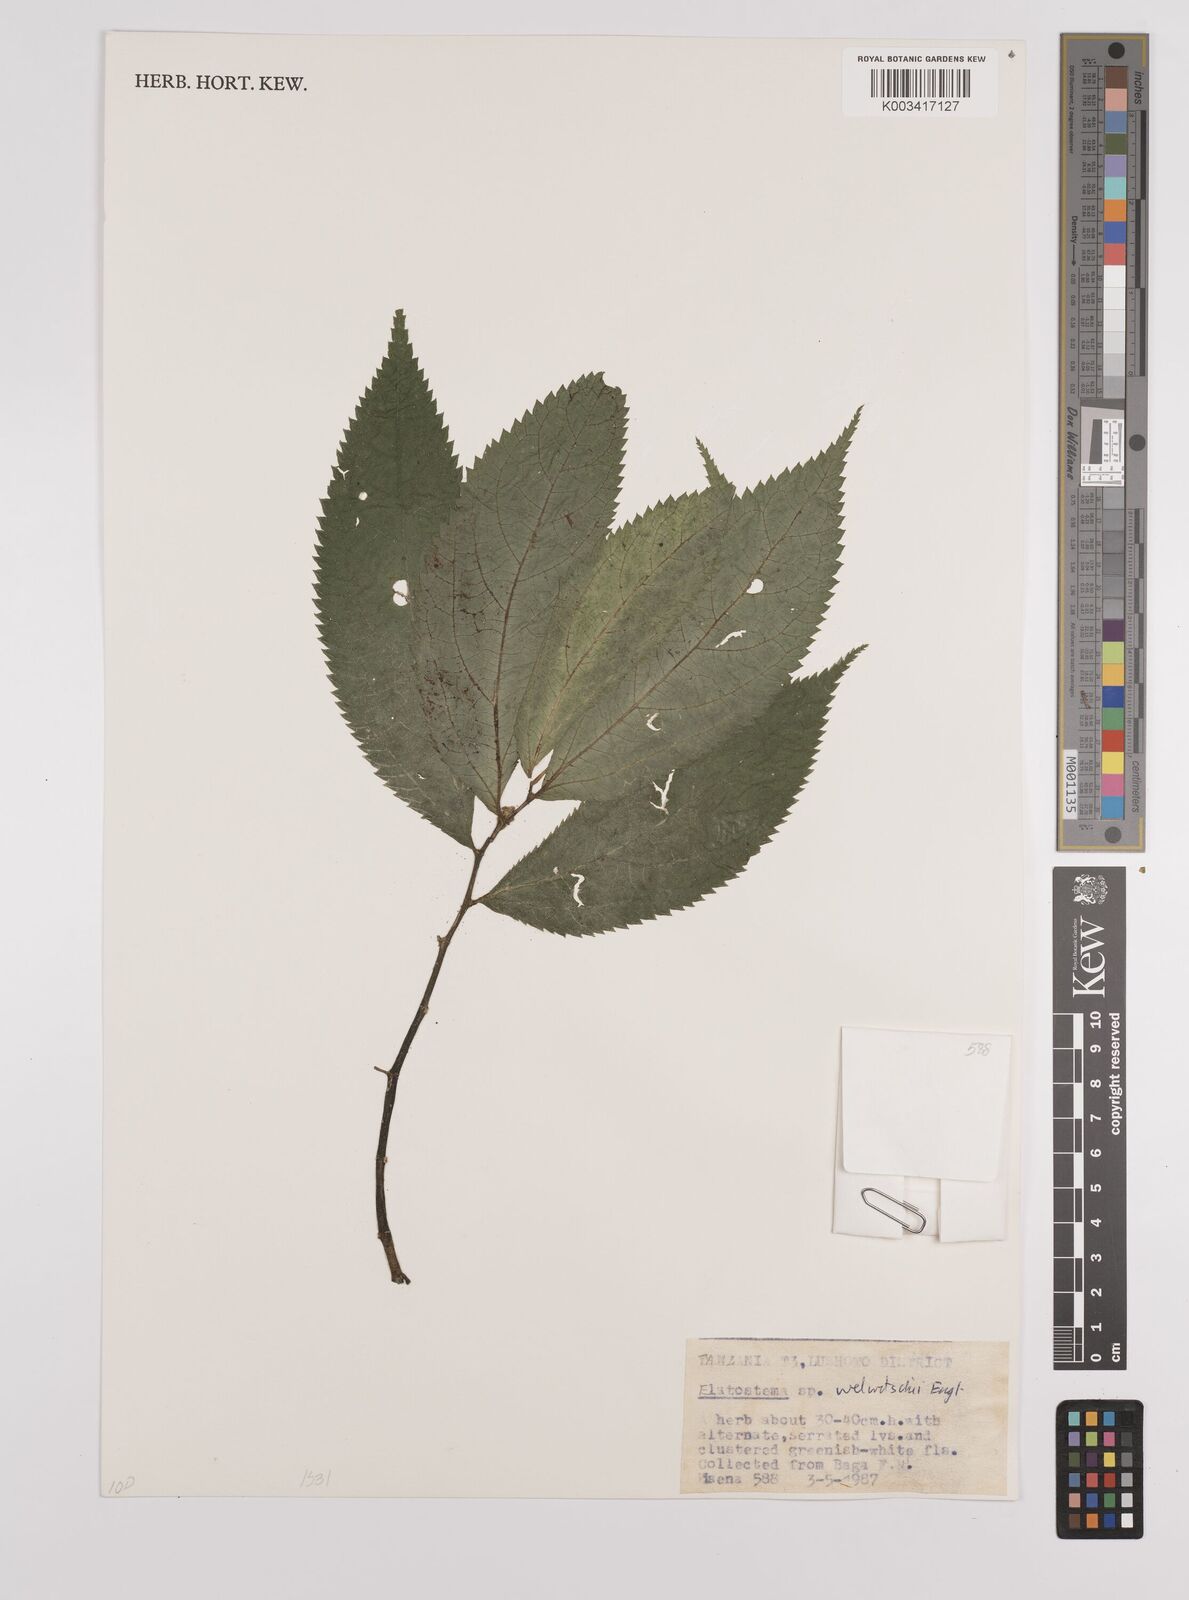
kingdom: Plantae
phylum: Tracheophyta
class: Magnoliopsida
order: Rosales
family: Urticaceae
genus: Elatostema
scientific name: Elatostema welwitschii
